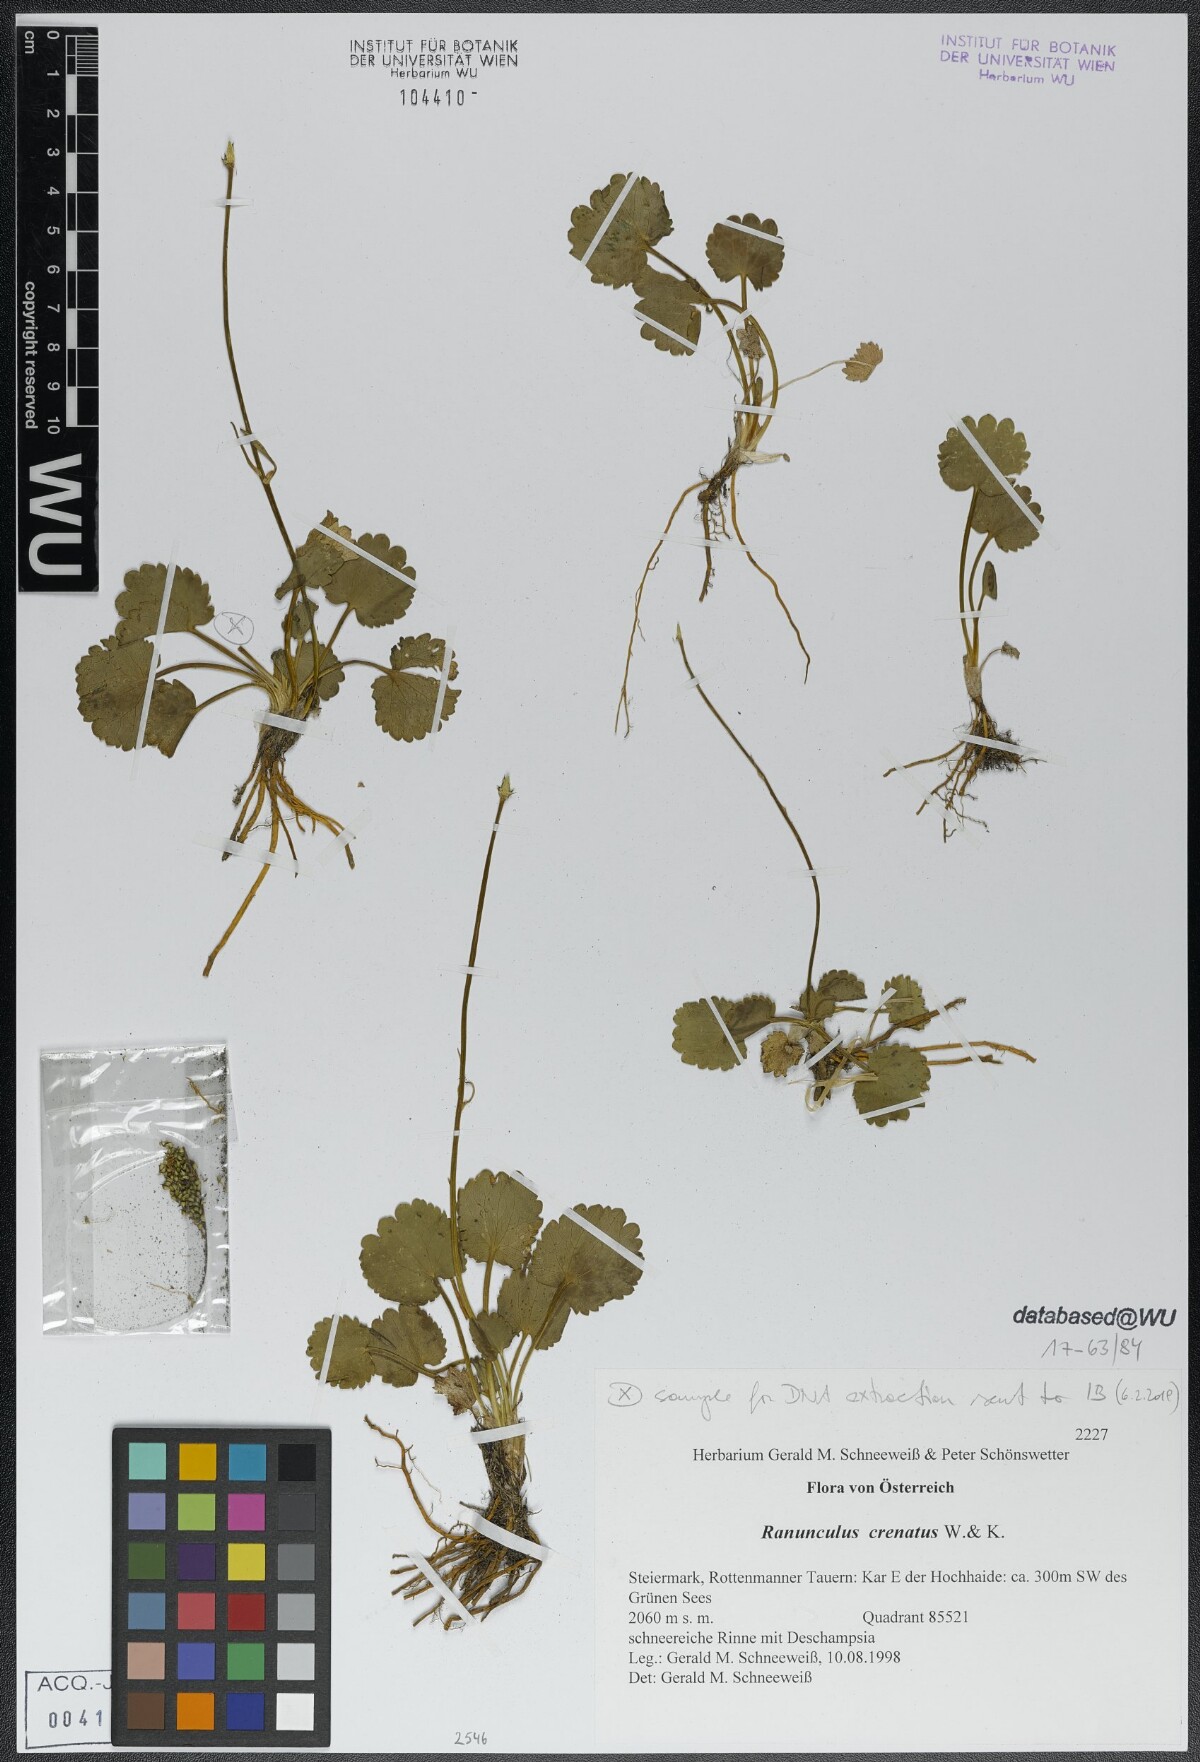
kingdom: Plantae
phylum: Tracheophyta
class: Magnoliopsida
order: Ranunculales
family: Ranunculaceae
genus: Ranunculus
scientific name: Ranunculus crenatus
